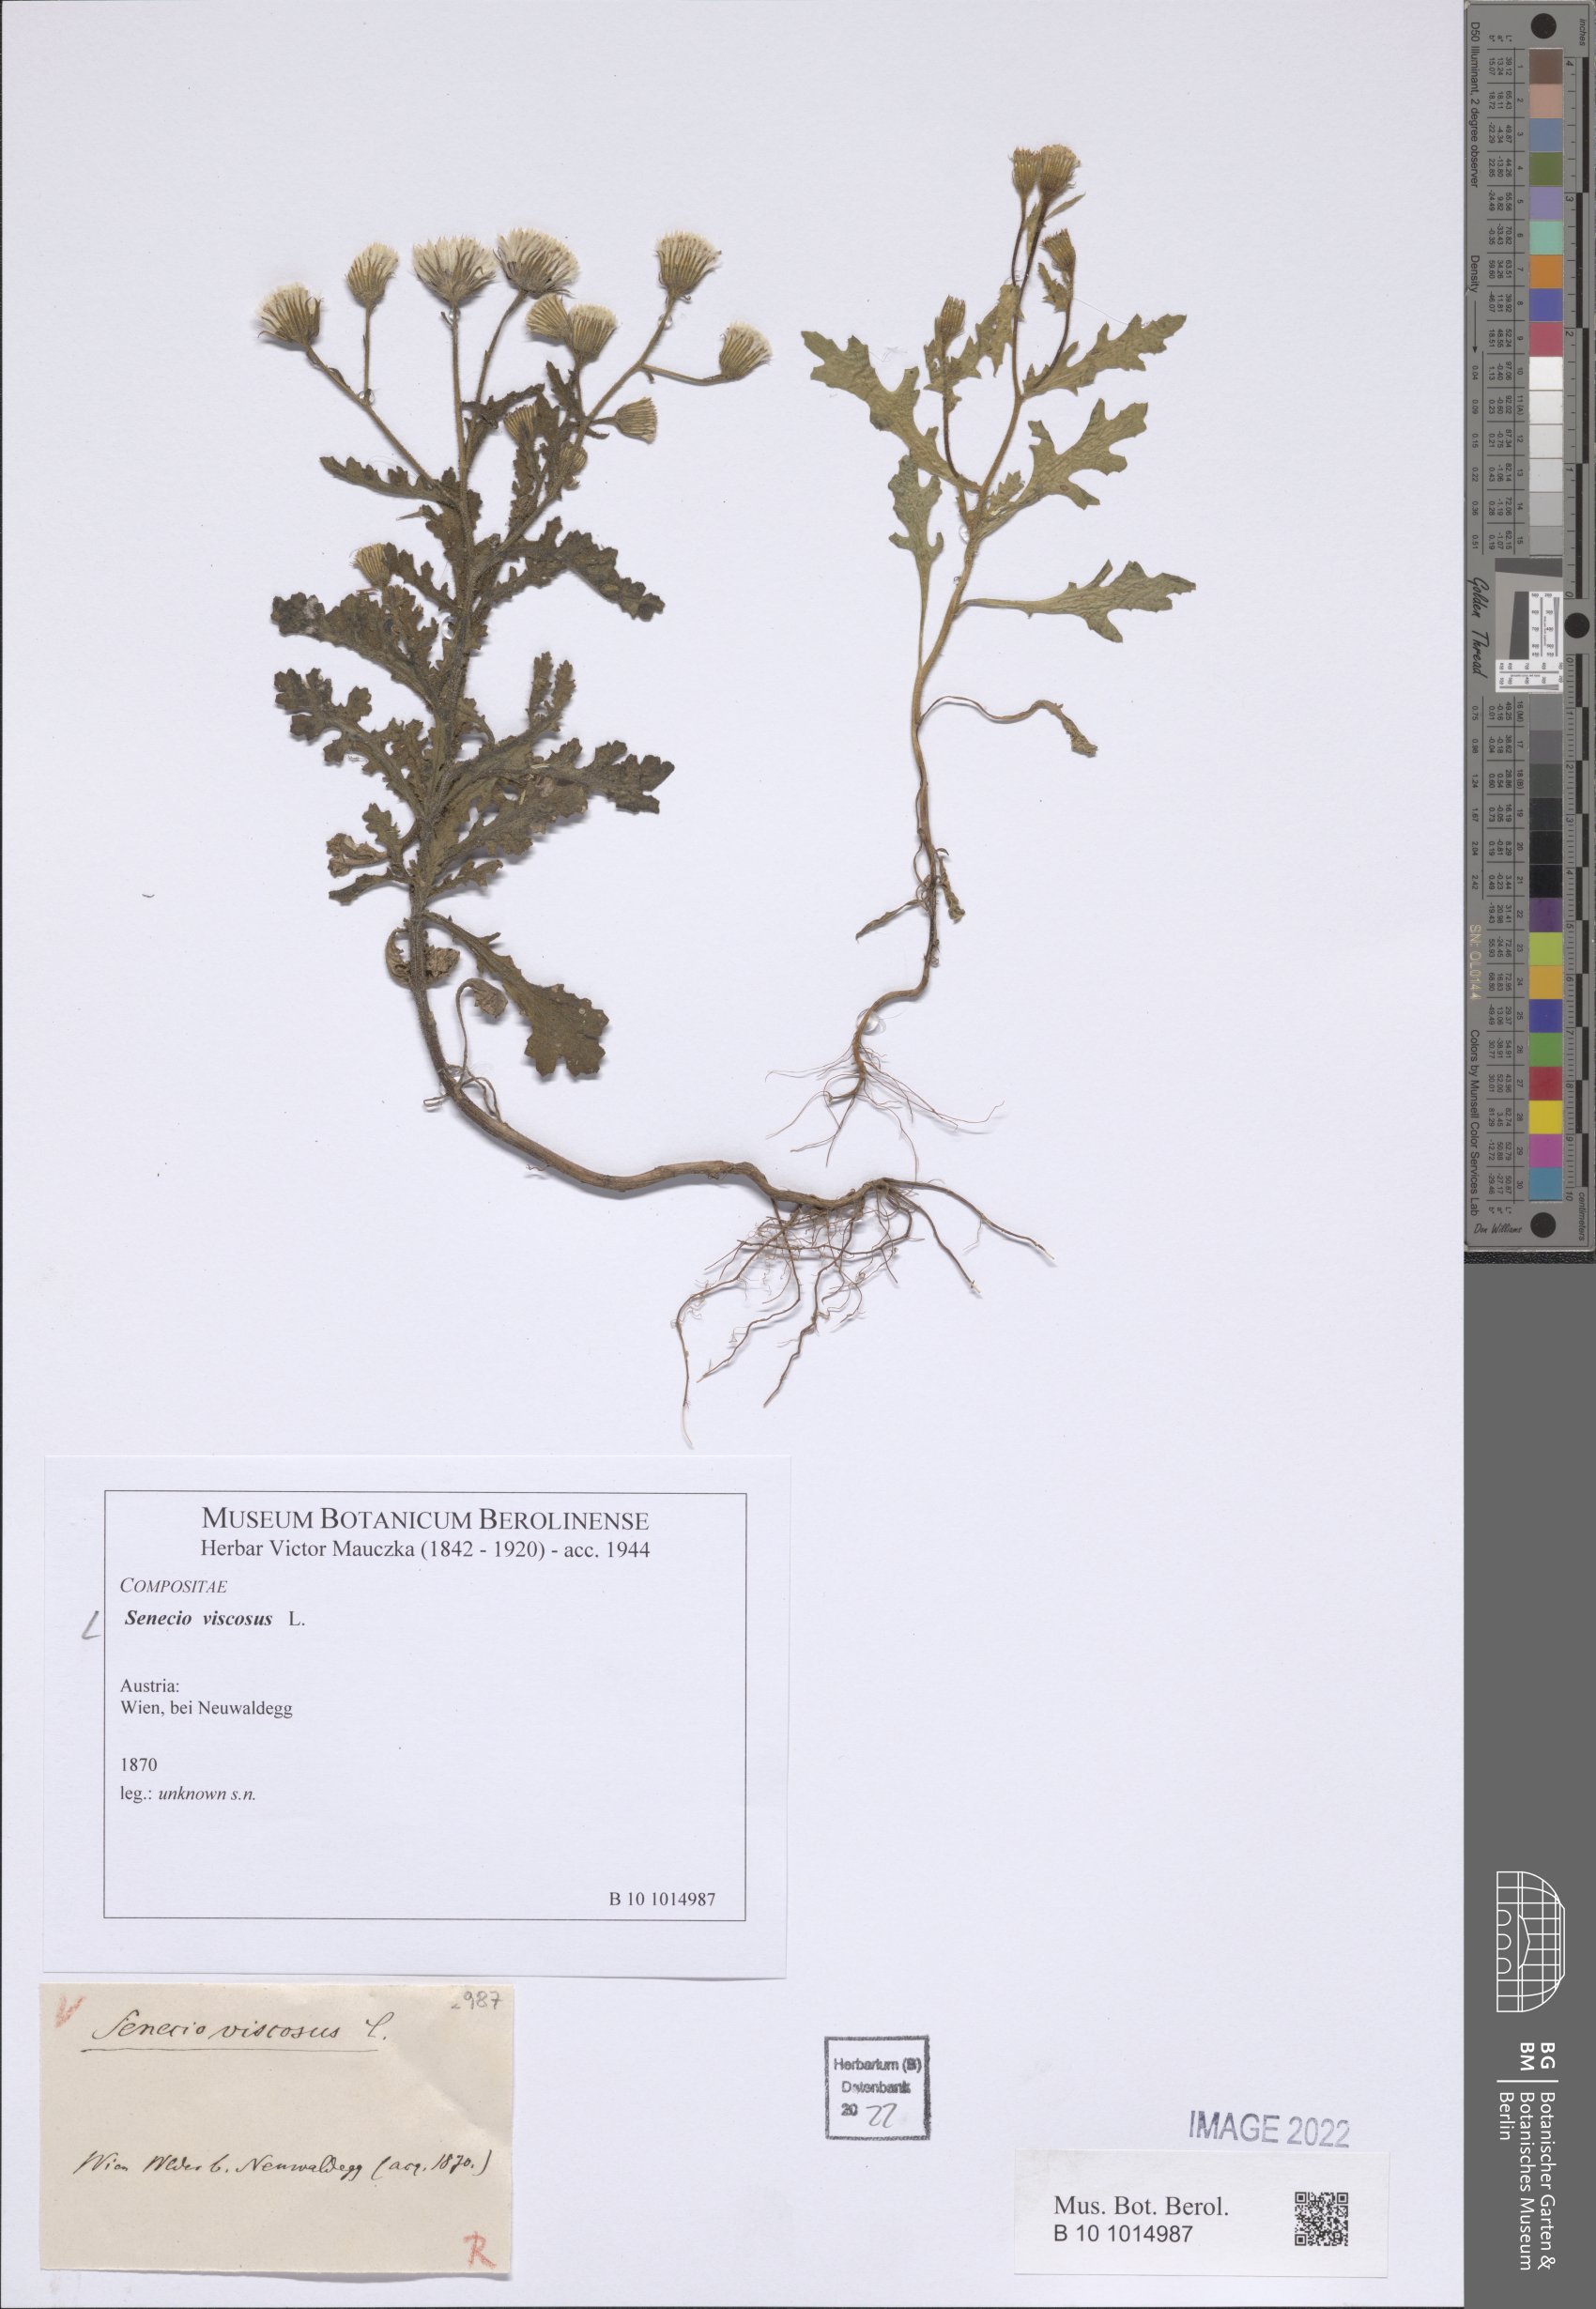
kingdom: Plantae
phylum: Tracheophyta
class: Magnoliopsida
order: Asterales
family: Asteraceae
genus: Senecio
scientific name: Senecio viscosus
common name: Sticky groundsel
